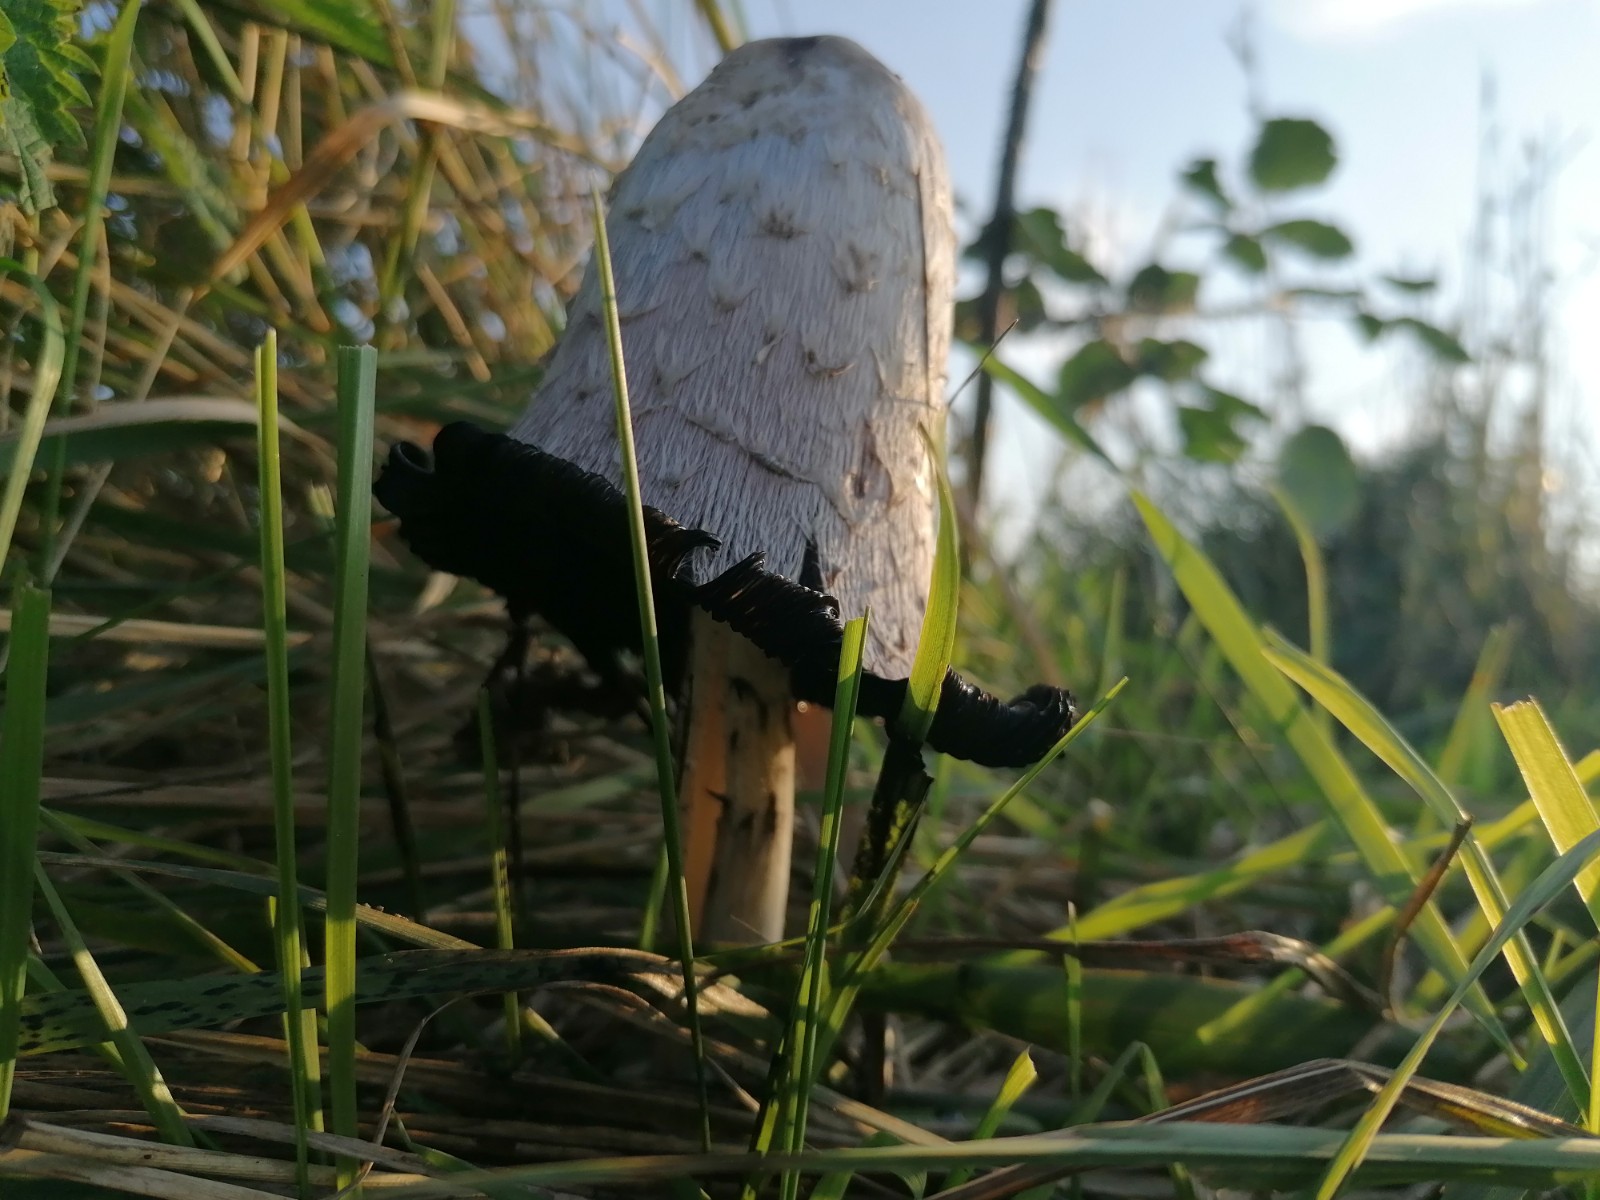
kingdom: Fungi
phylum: Basidiomycota
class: Agaricomycetes
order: Agaricales
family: Agaricaceae
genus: Coprinus
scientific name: Coprinus comatus
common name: stor parykhat
